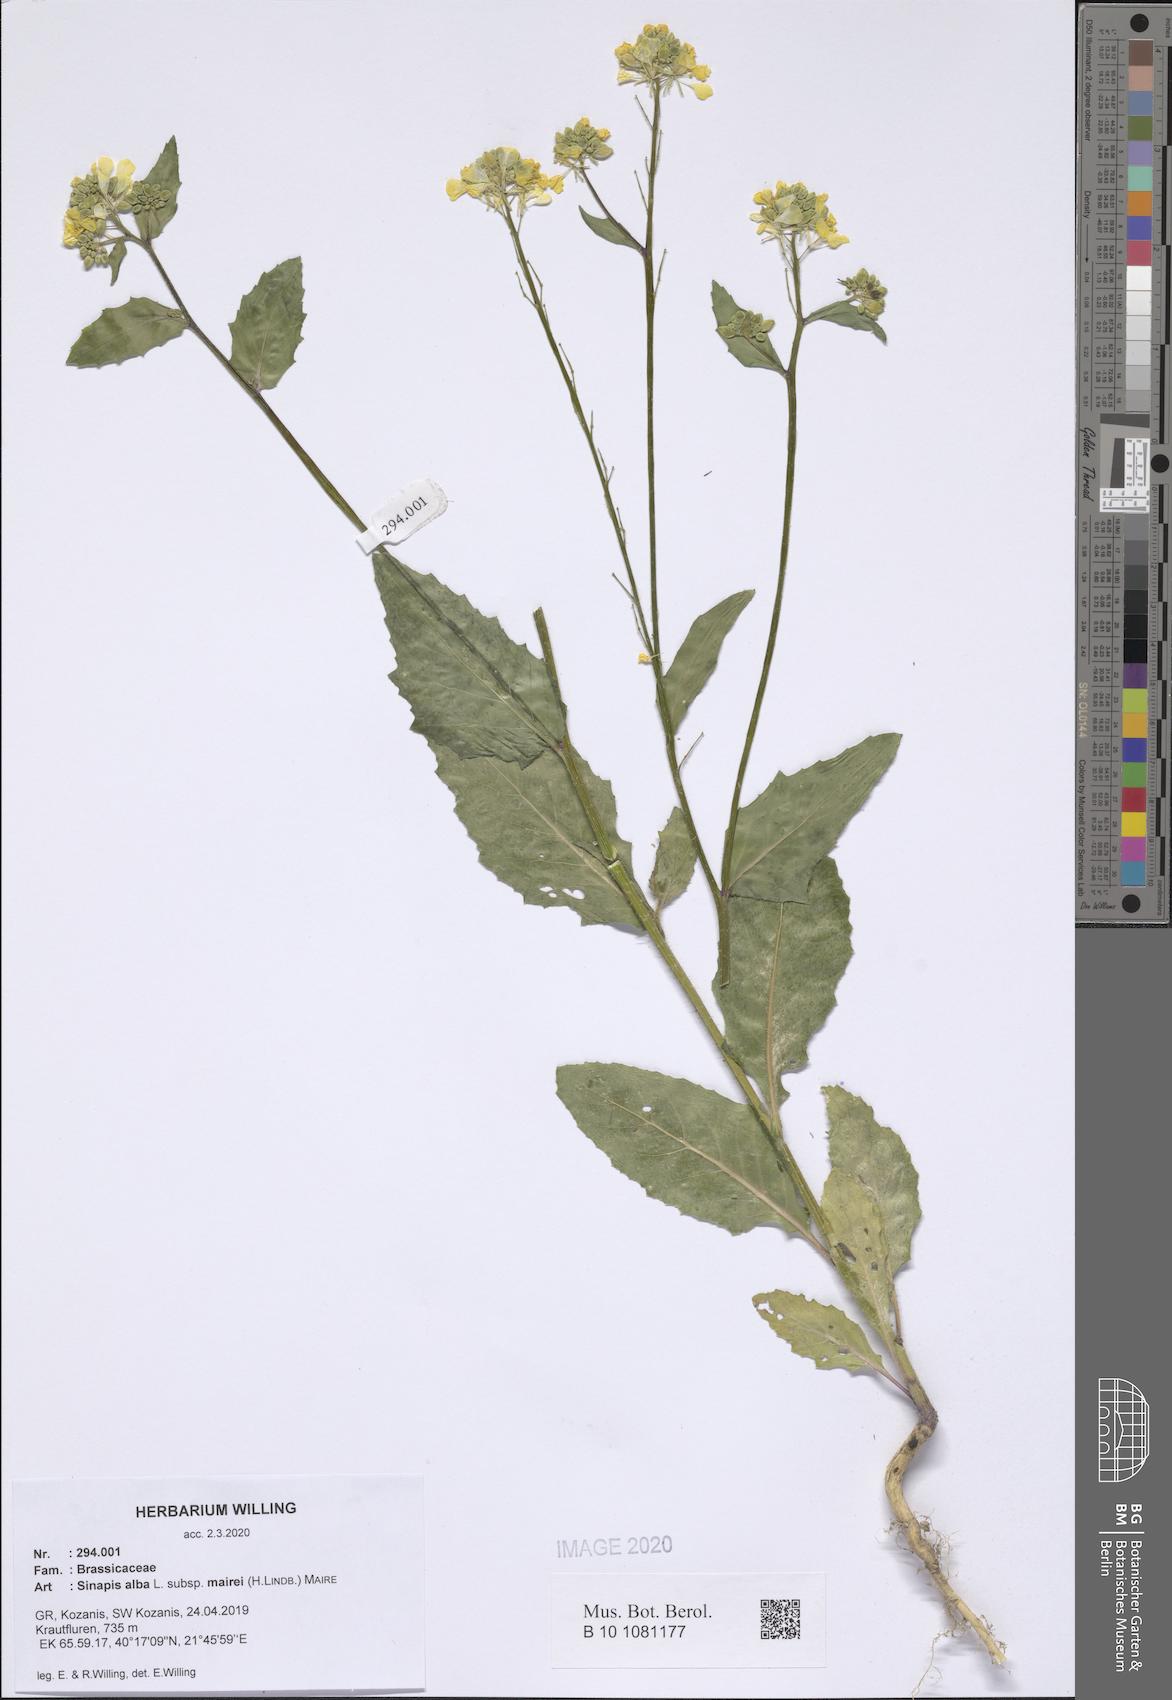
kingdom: Plantae
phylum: Tracheophyta
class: Magnoliopsida
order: Brassicales
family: Brassicaceae
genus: Sinapis
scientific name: Sinapis alba
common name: White mustard
